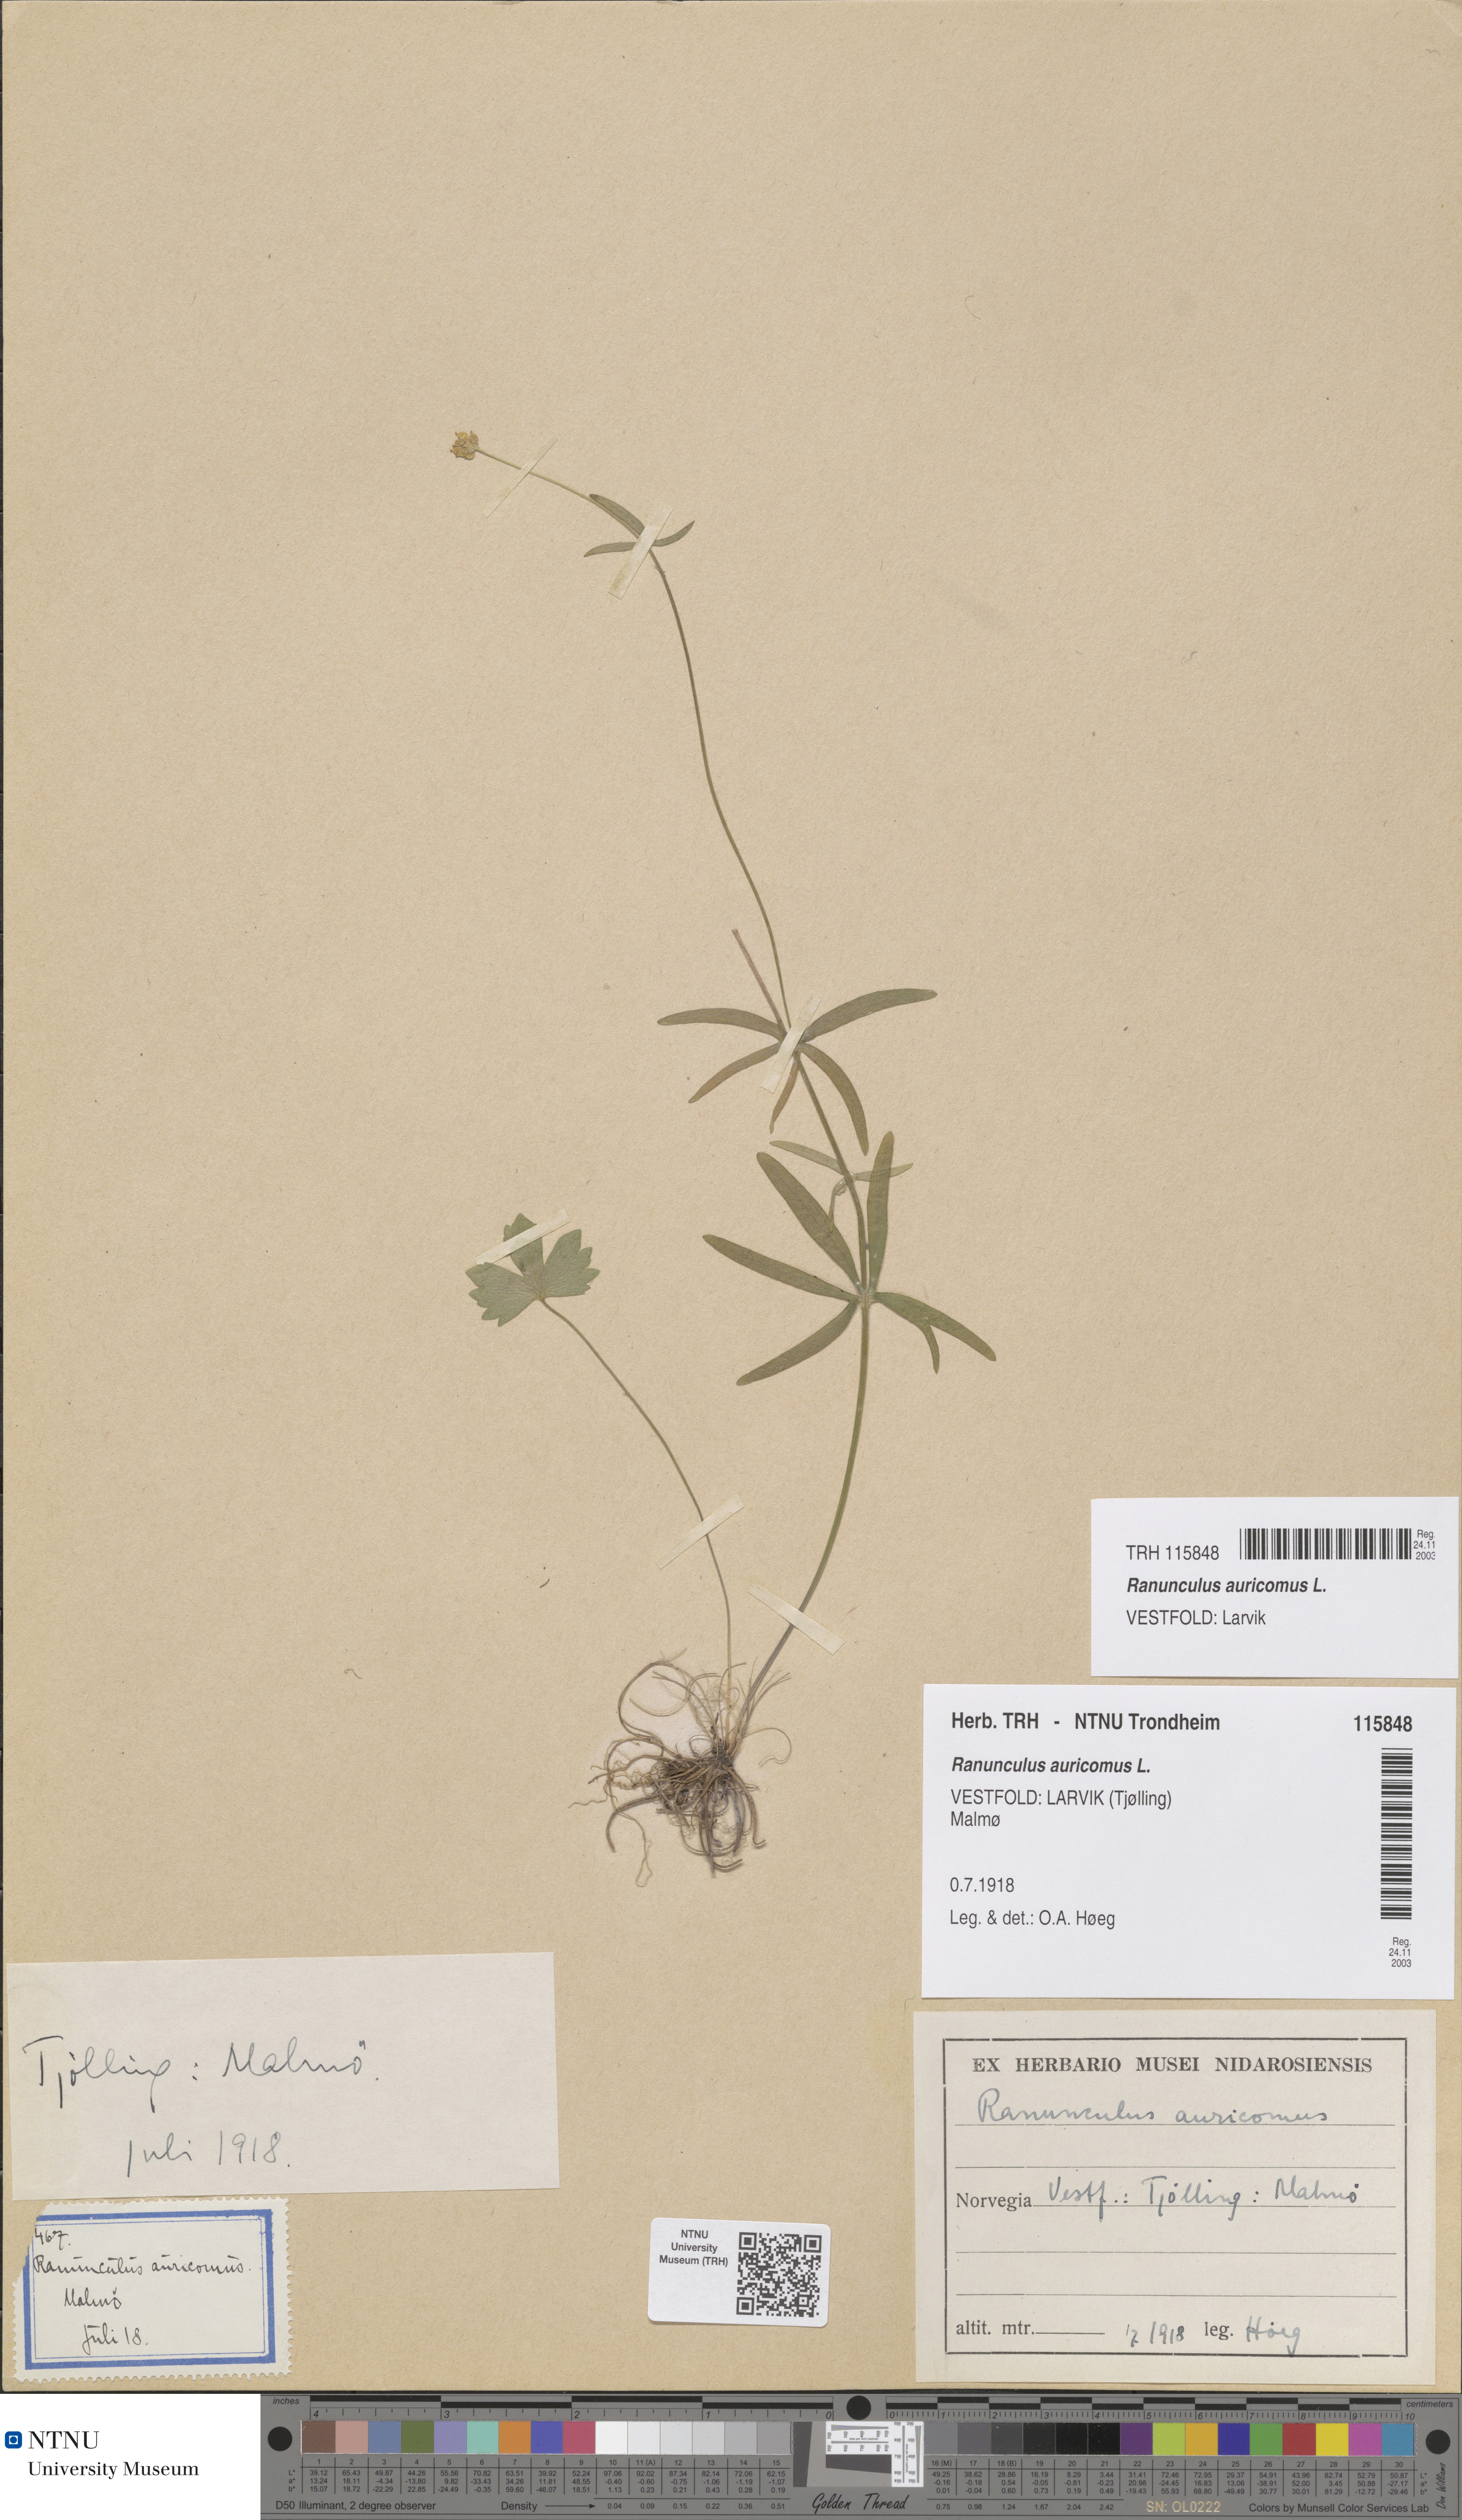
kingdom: Plantae
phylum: Tracheophyta
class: Magnoliopsida
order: Ranunculales
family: Ranunculaceae
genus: Ranunculus
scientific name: Ranunculus auricomus
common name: Goldilocks buttercup
